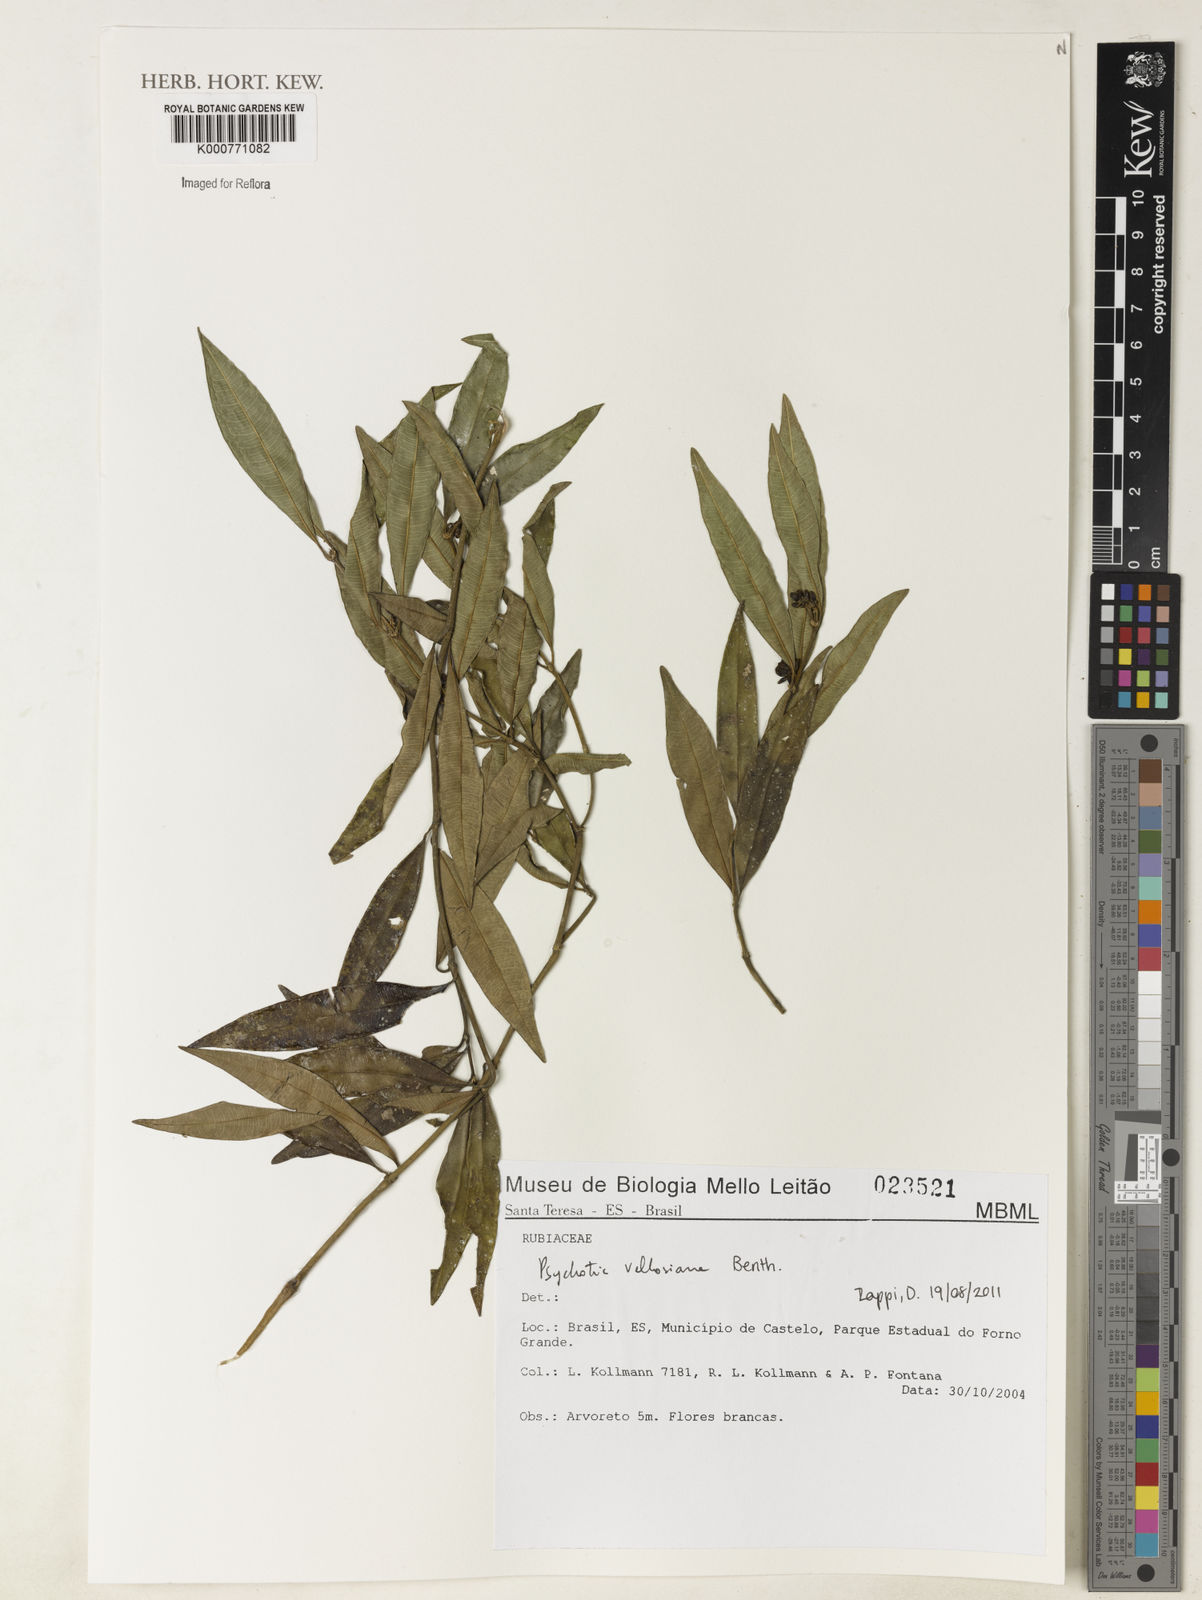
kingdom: Plantae
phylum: Tracheophyta
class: Magnoliopsida
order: Gentianales
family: Rubiaceae
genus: Palicourea
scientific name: Palicourea sessilis
